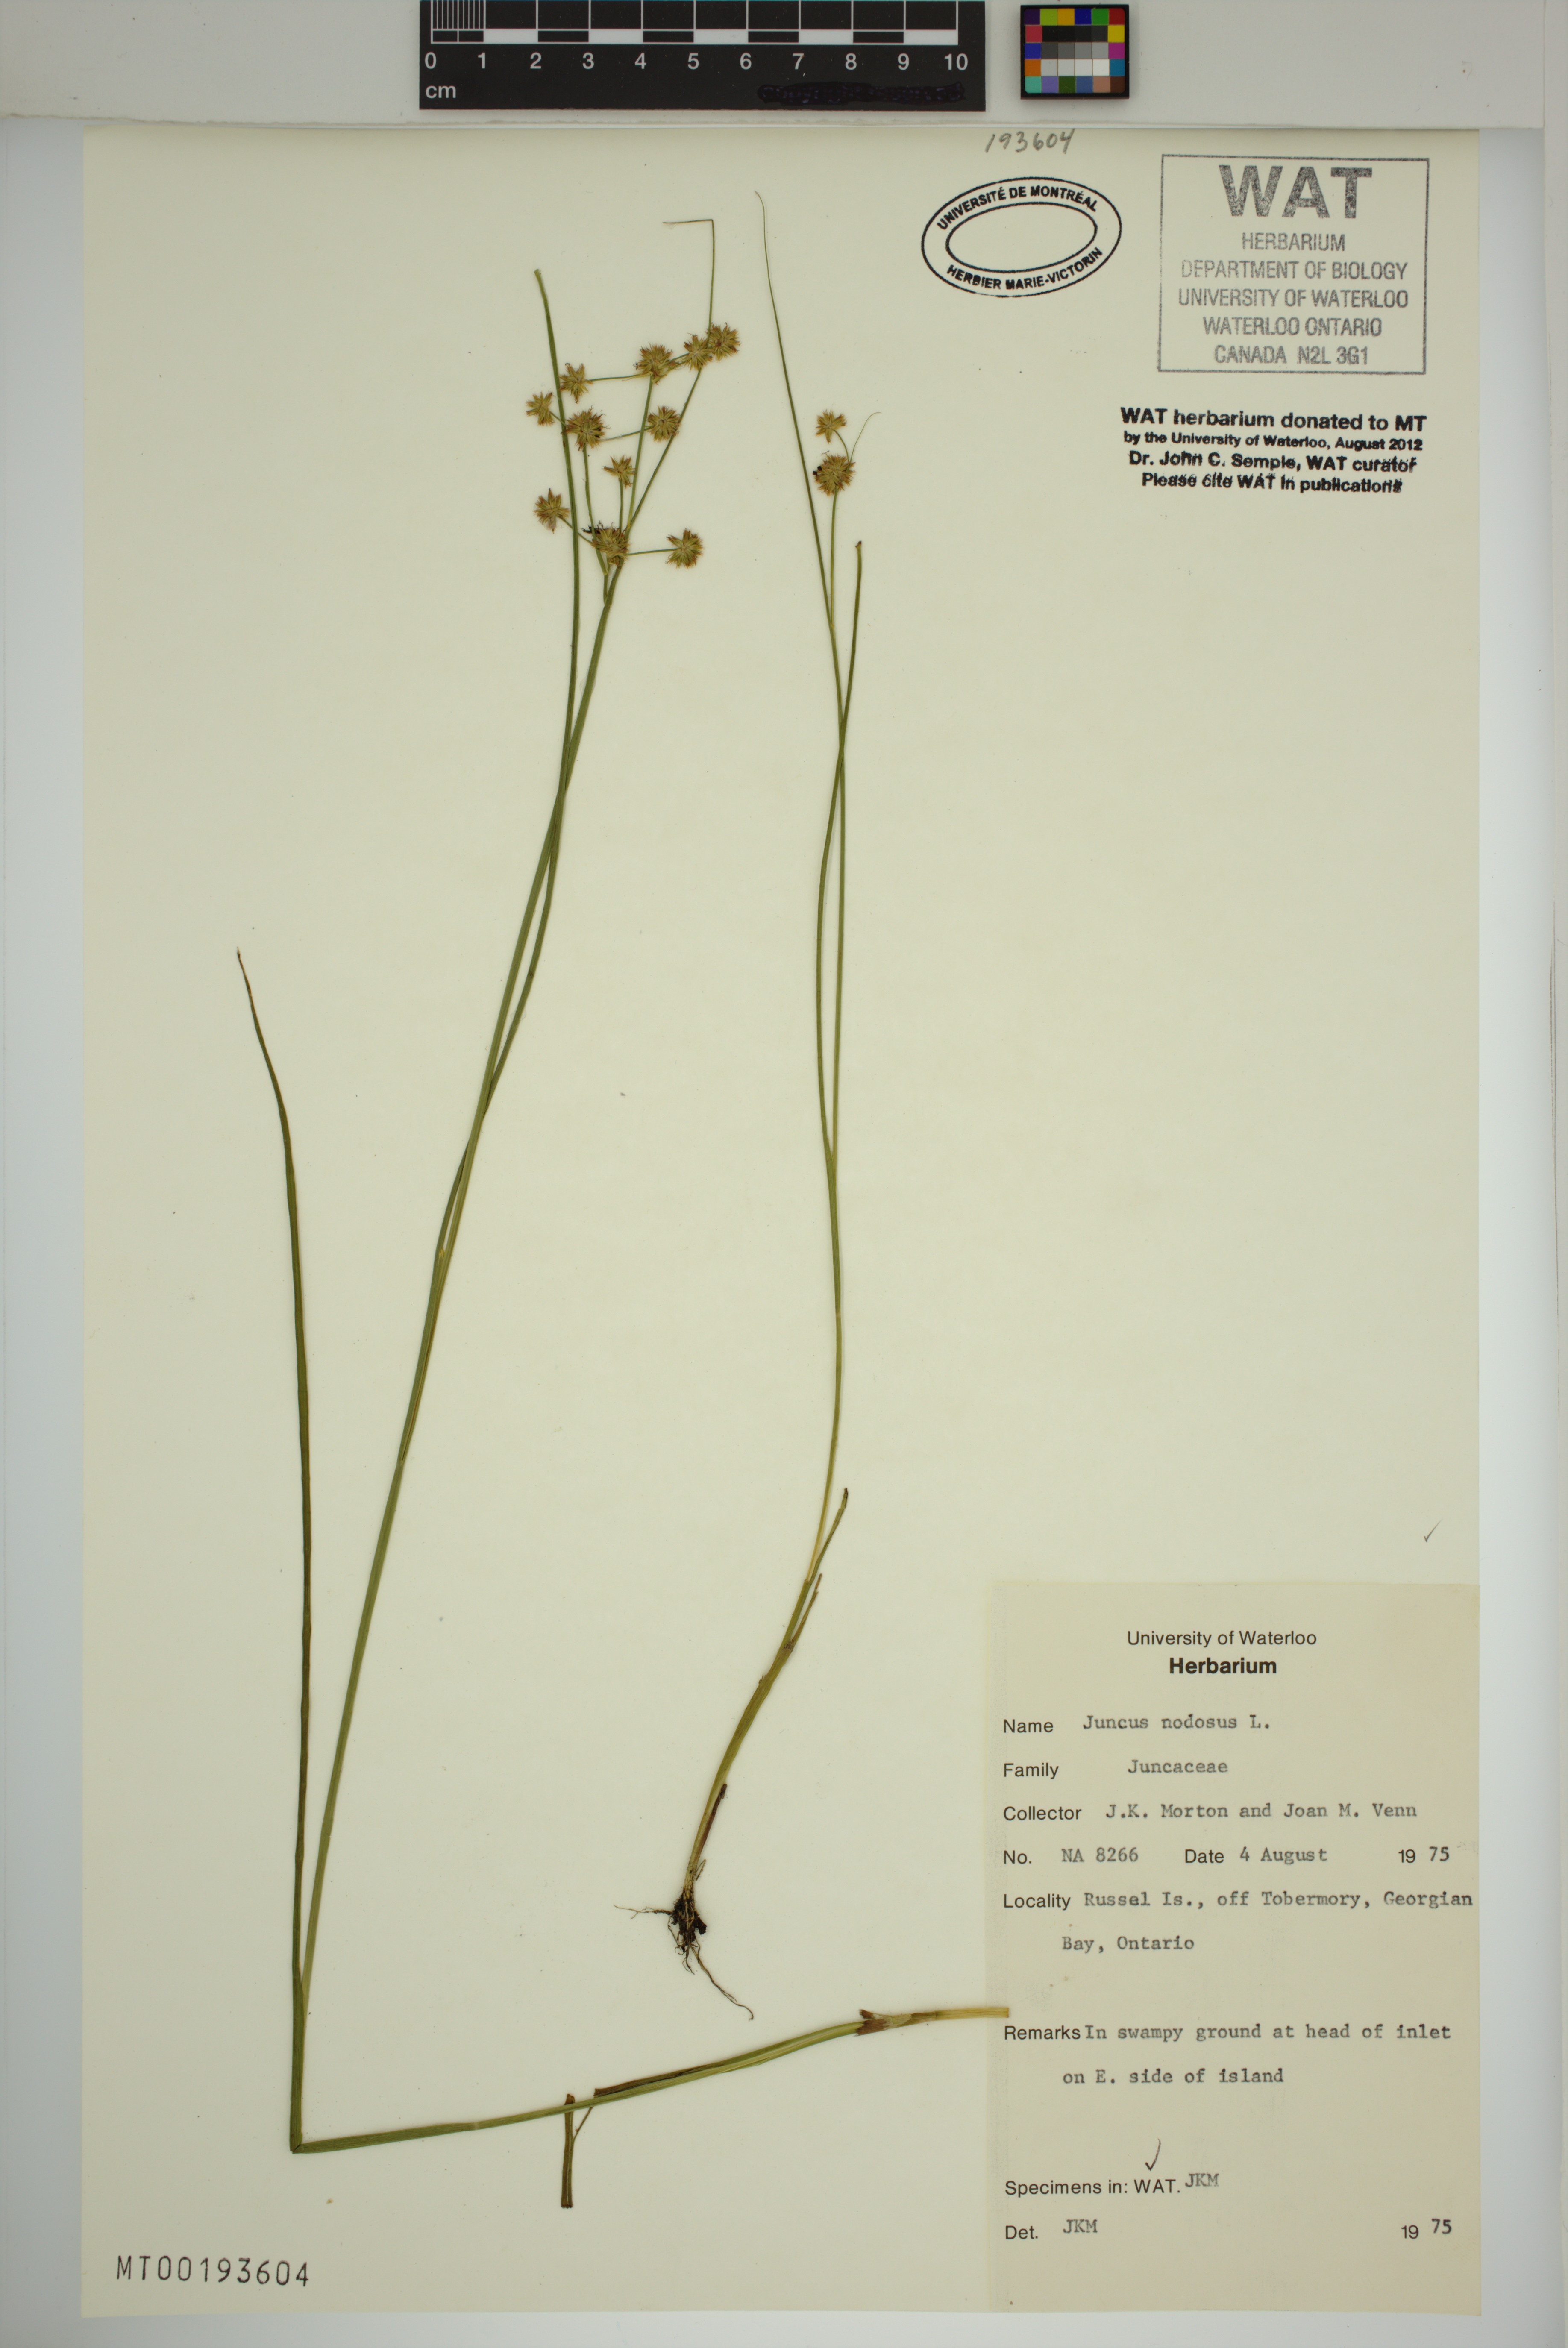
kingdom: Plantae
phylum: Tracheophyta
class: Liliopsida
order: Poales
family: Juncaceae
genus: Juncus
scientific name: Juncus nodosus
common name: Knotted rush
